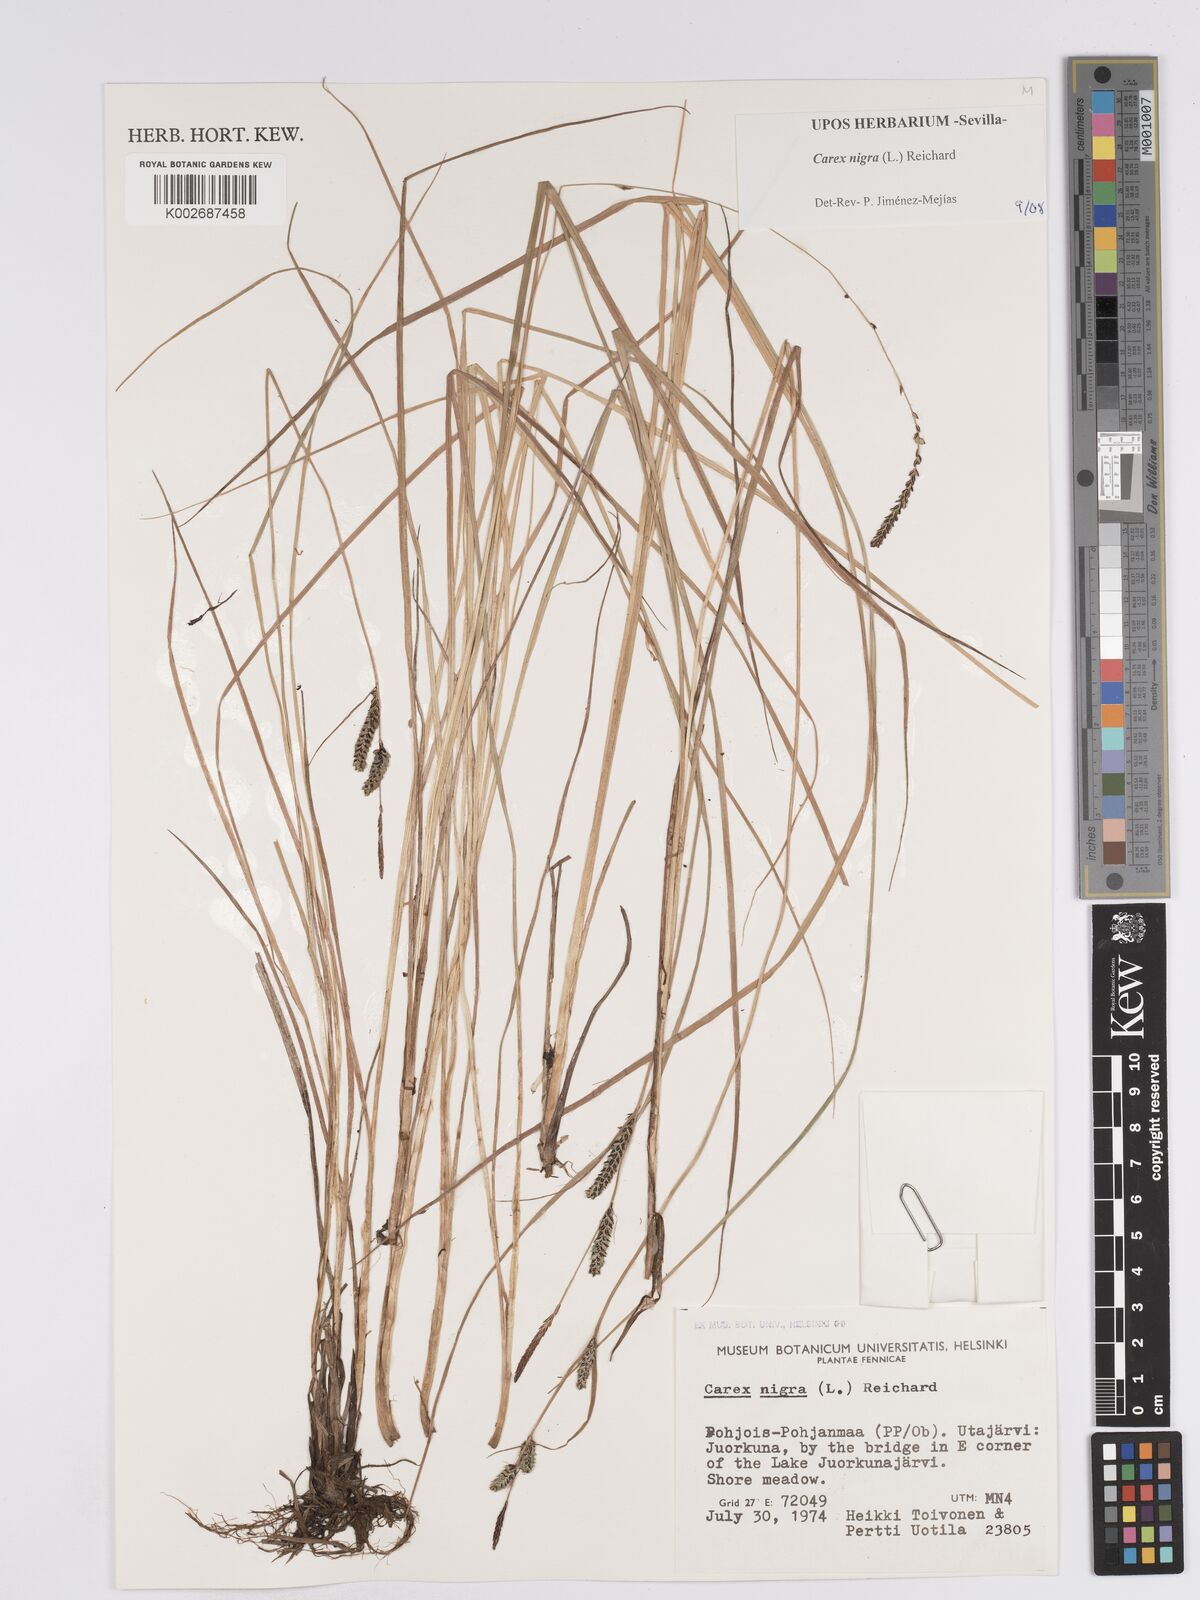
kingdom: Plantae
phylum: Tracheophyta
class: Liliopsida
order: Poales
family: Cyperaceae
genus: Carex
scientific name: Carex nigra
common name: Common sedge
